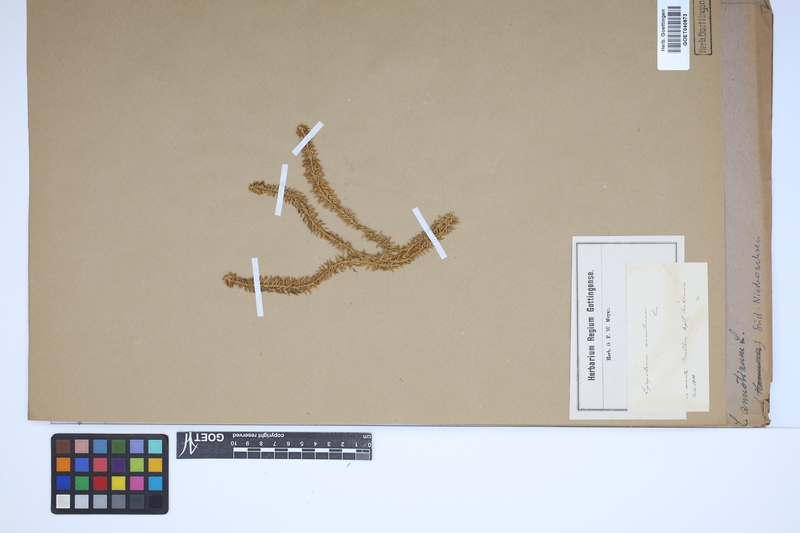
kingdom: Plantae
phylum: Tracheophyta
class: Lycopodiopsida
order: Lycopodiales
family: Lycopodiaceae
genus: Spinulum
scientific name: Spinulum annotinum
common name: Interrupted club-moss
